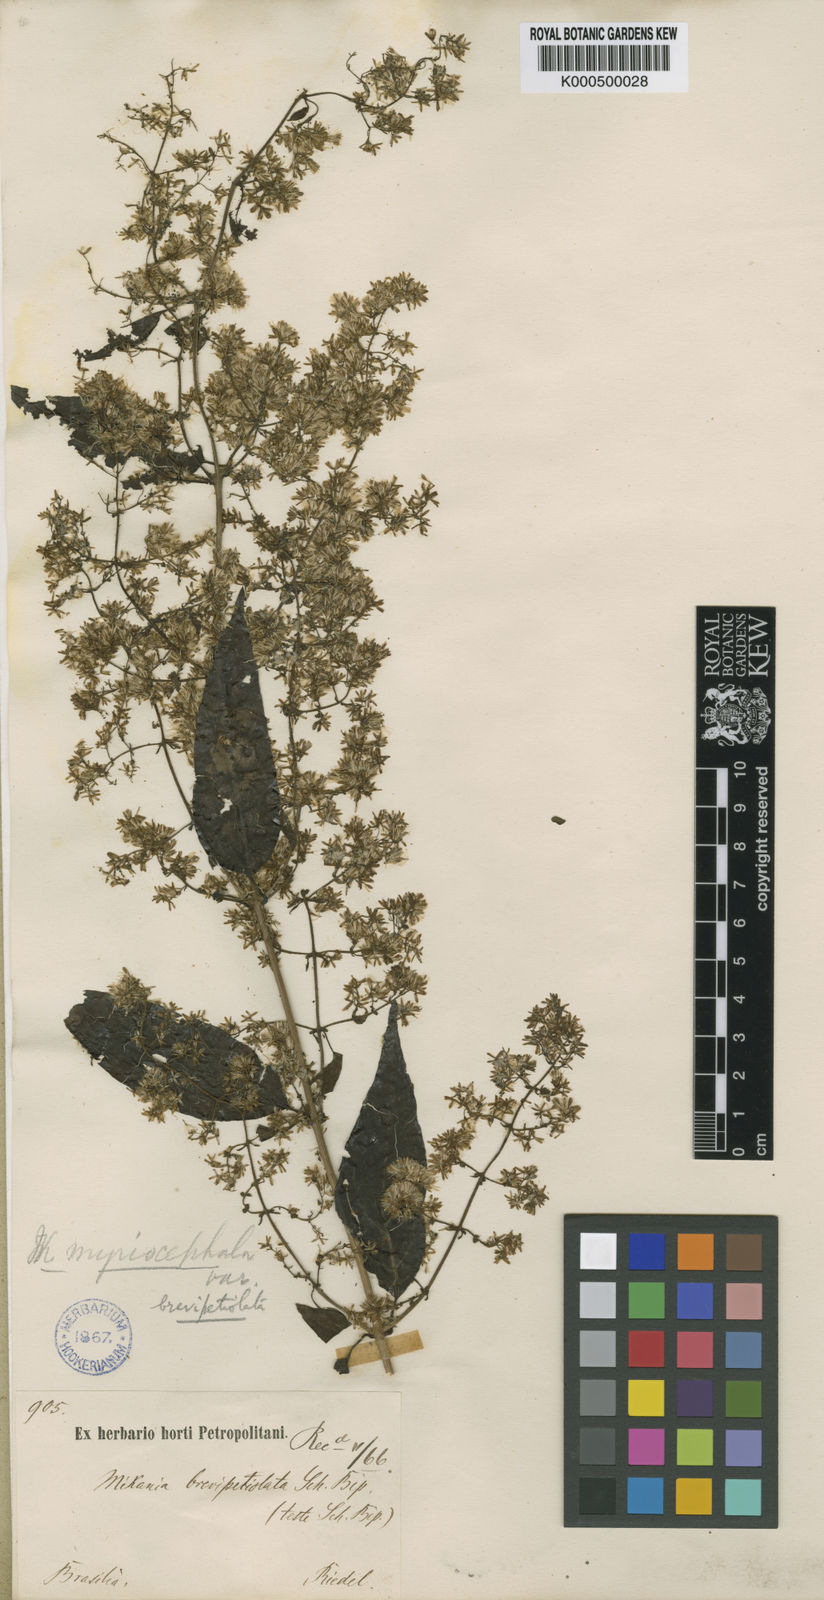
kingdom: Plantae
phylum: Tracheophyta
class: Magnoliopsida
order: Asterales
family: Asteraceae
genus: Mikania
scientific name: Mikania myriocephala
